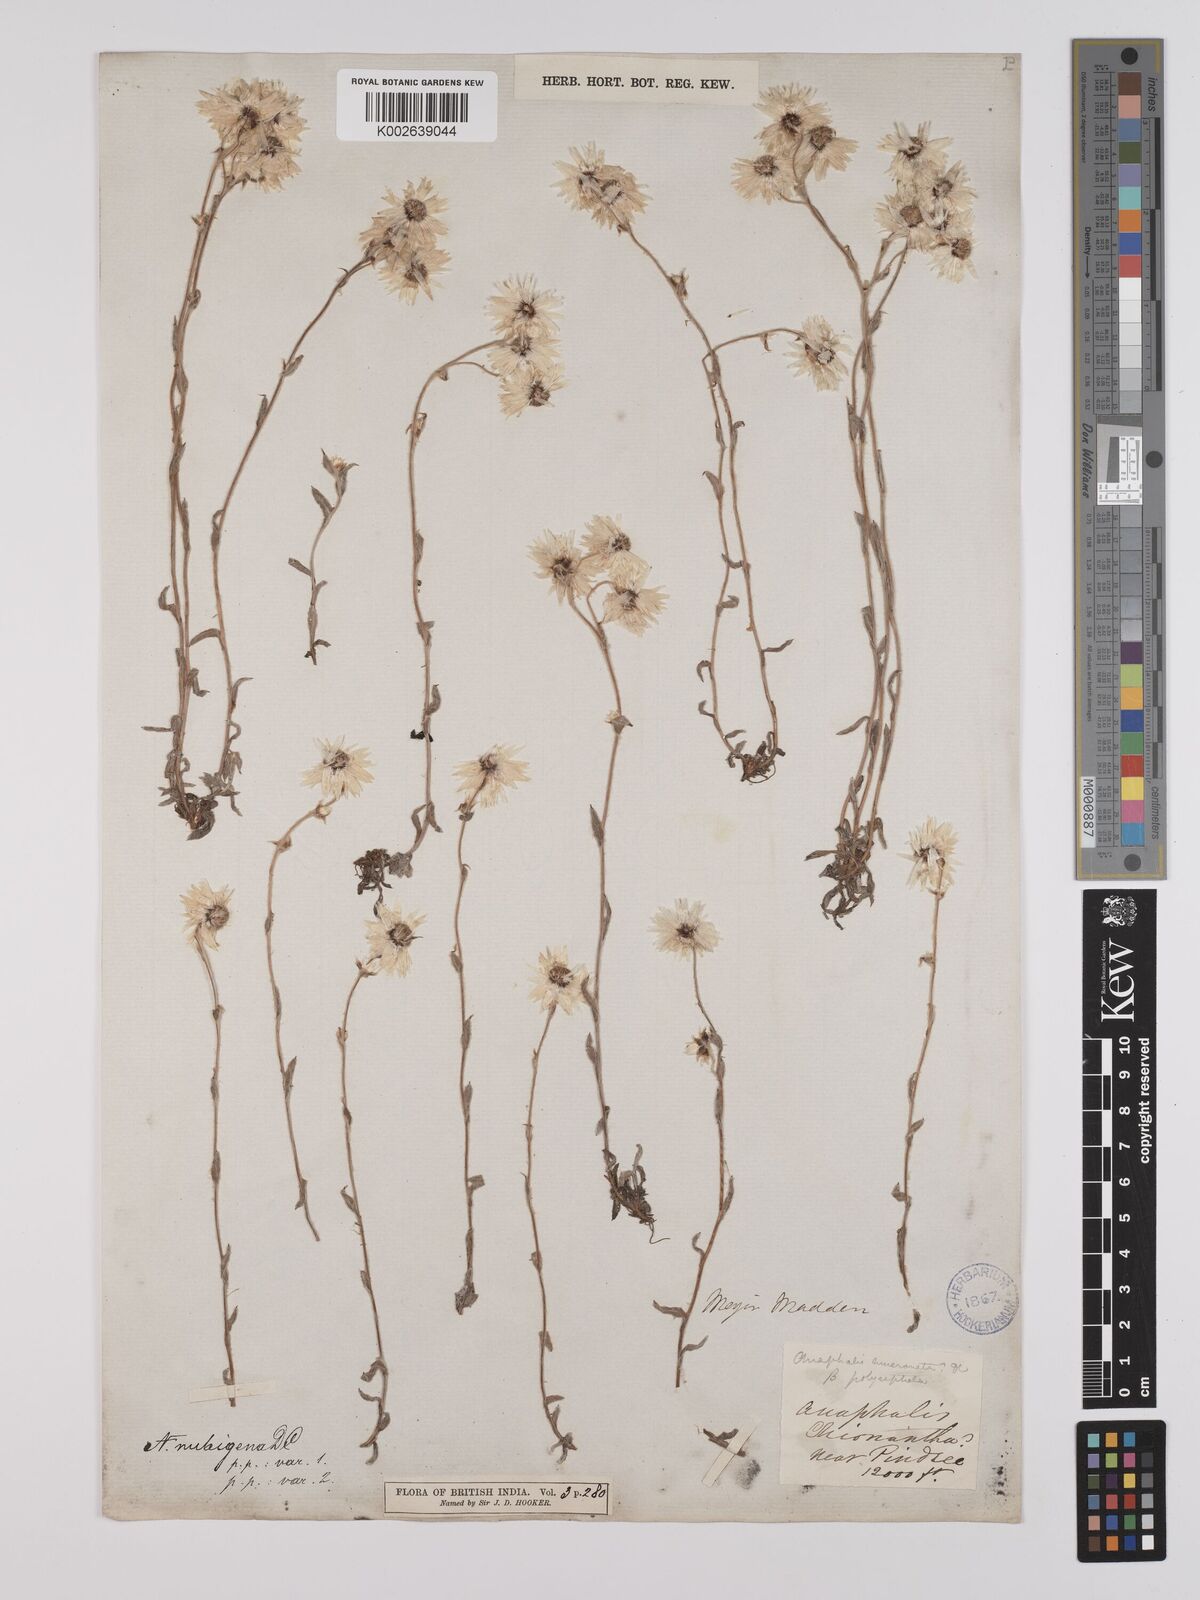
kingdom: Plantae
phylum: Tracheophyta
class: Magnoliopsida
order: Asterales
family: Asteraceae
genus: Anaphalioides
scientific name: Anaphalioides trinervis
